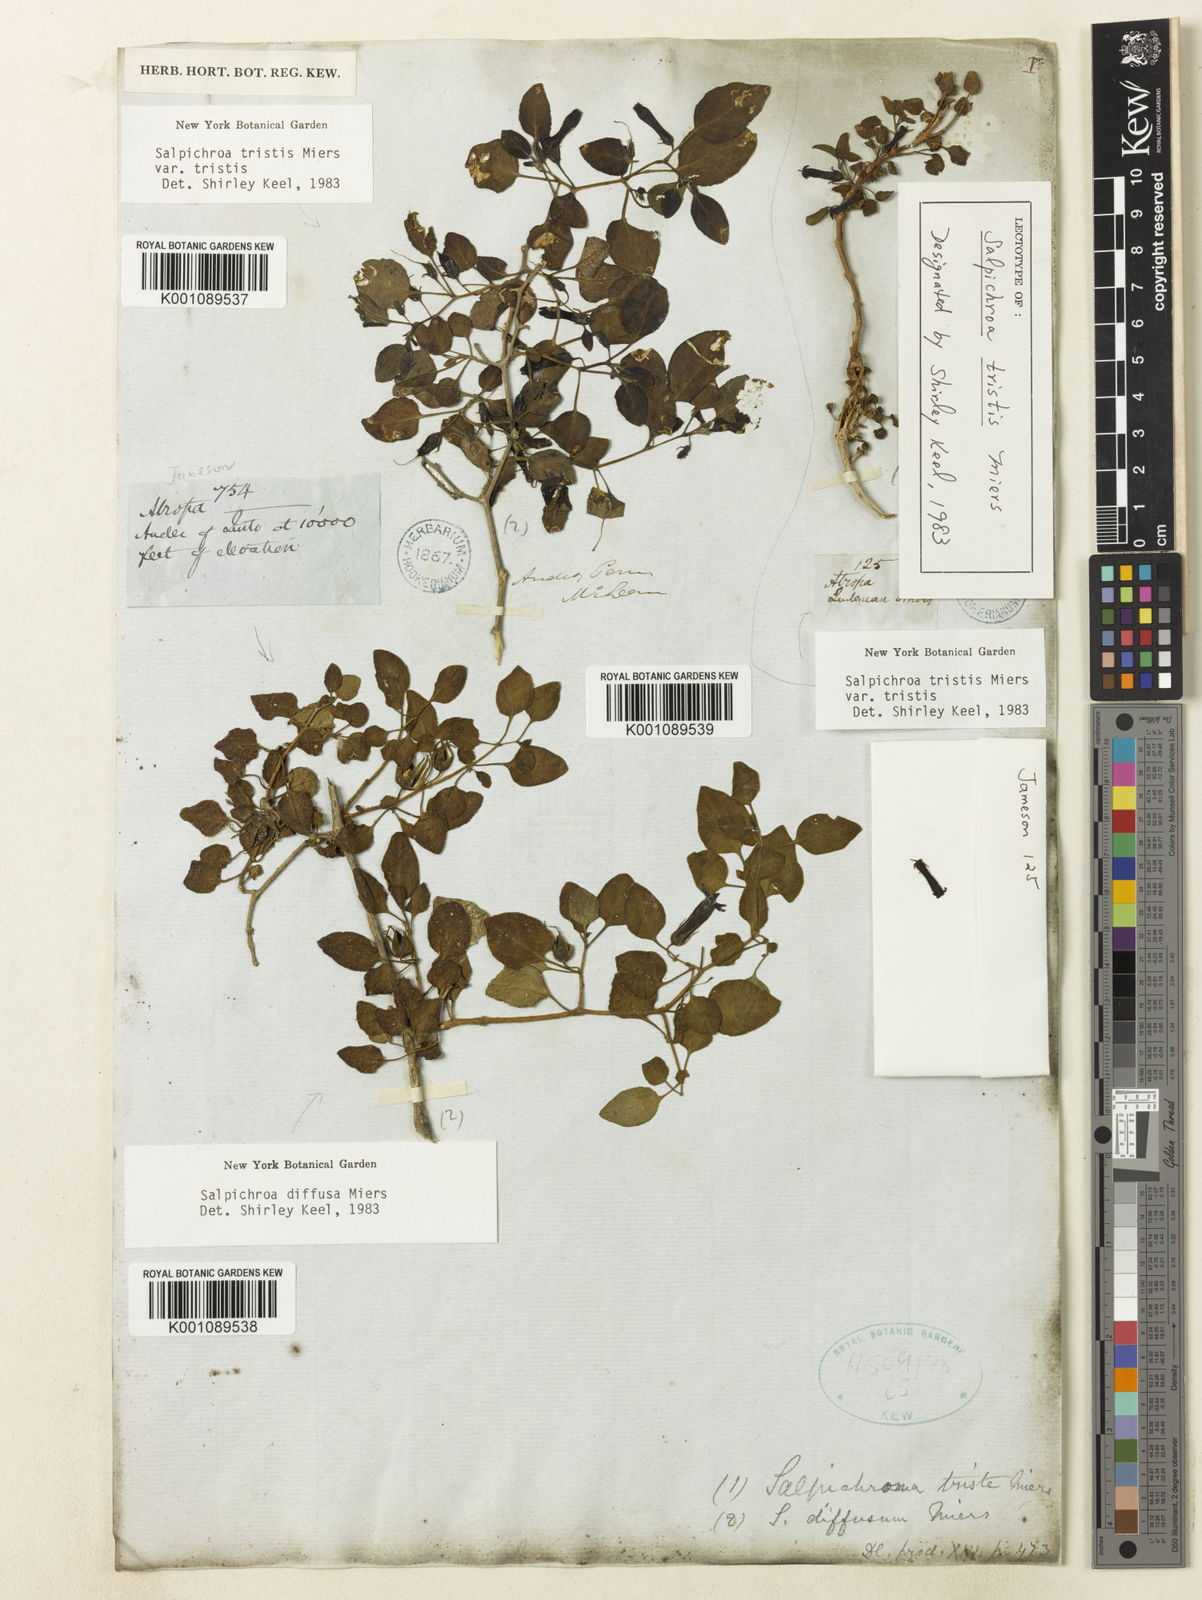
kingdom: Plantae
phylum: Tracheophyta
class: Magnoliopsida
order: Solanales
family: Solanaceae
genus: Salpichroa
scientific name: Salpichroa
